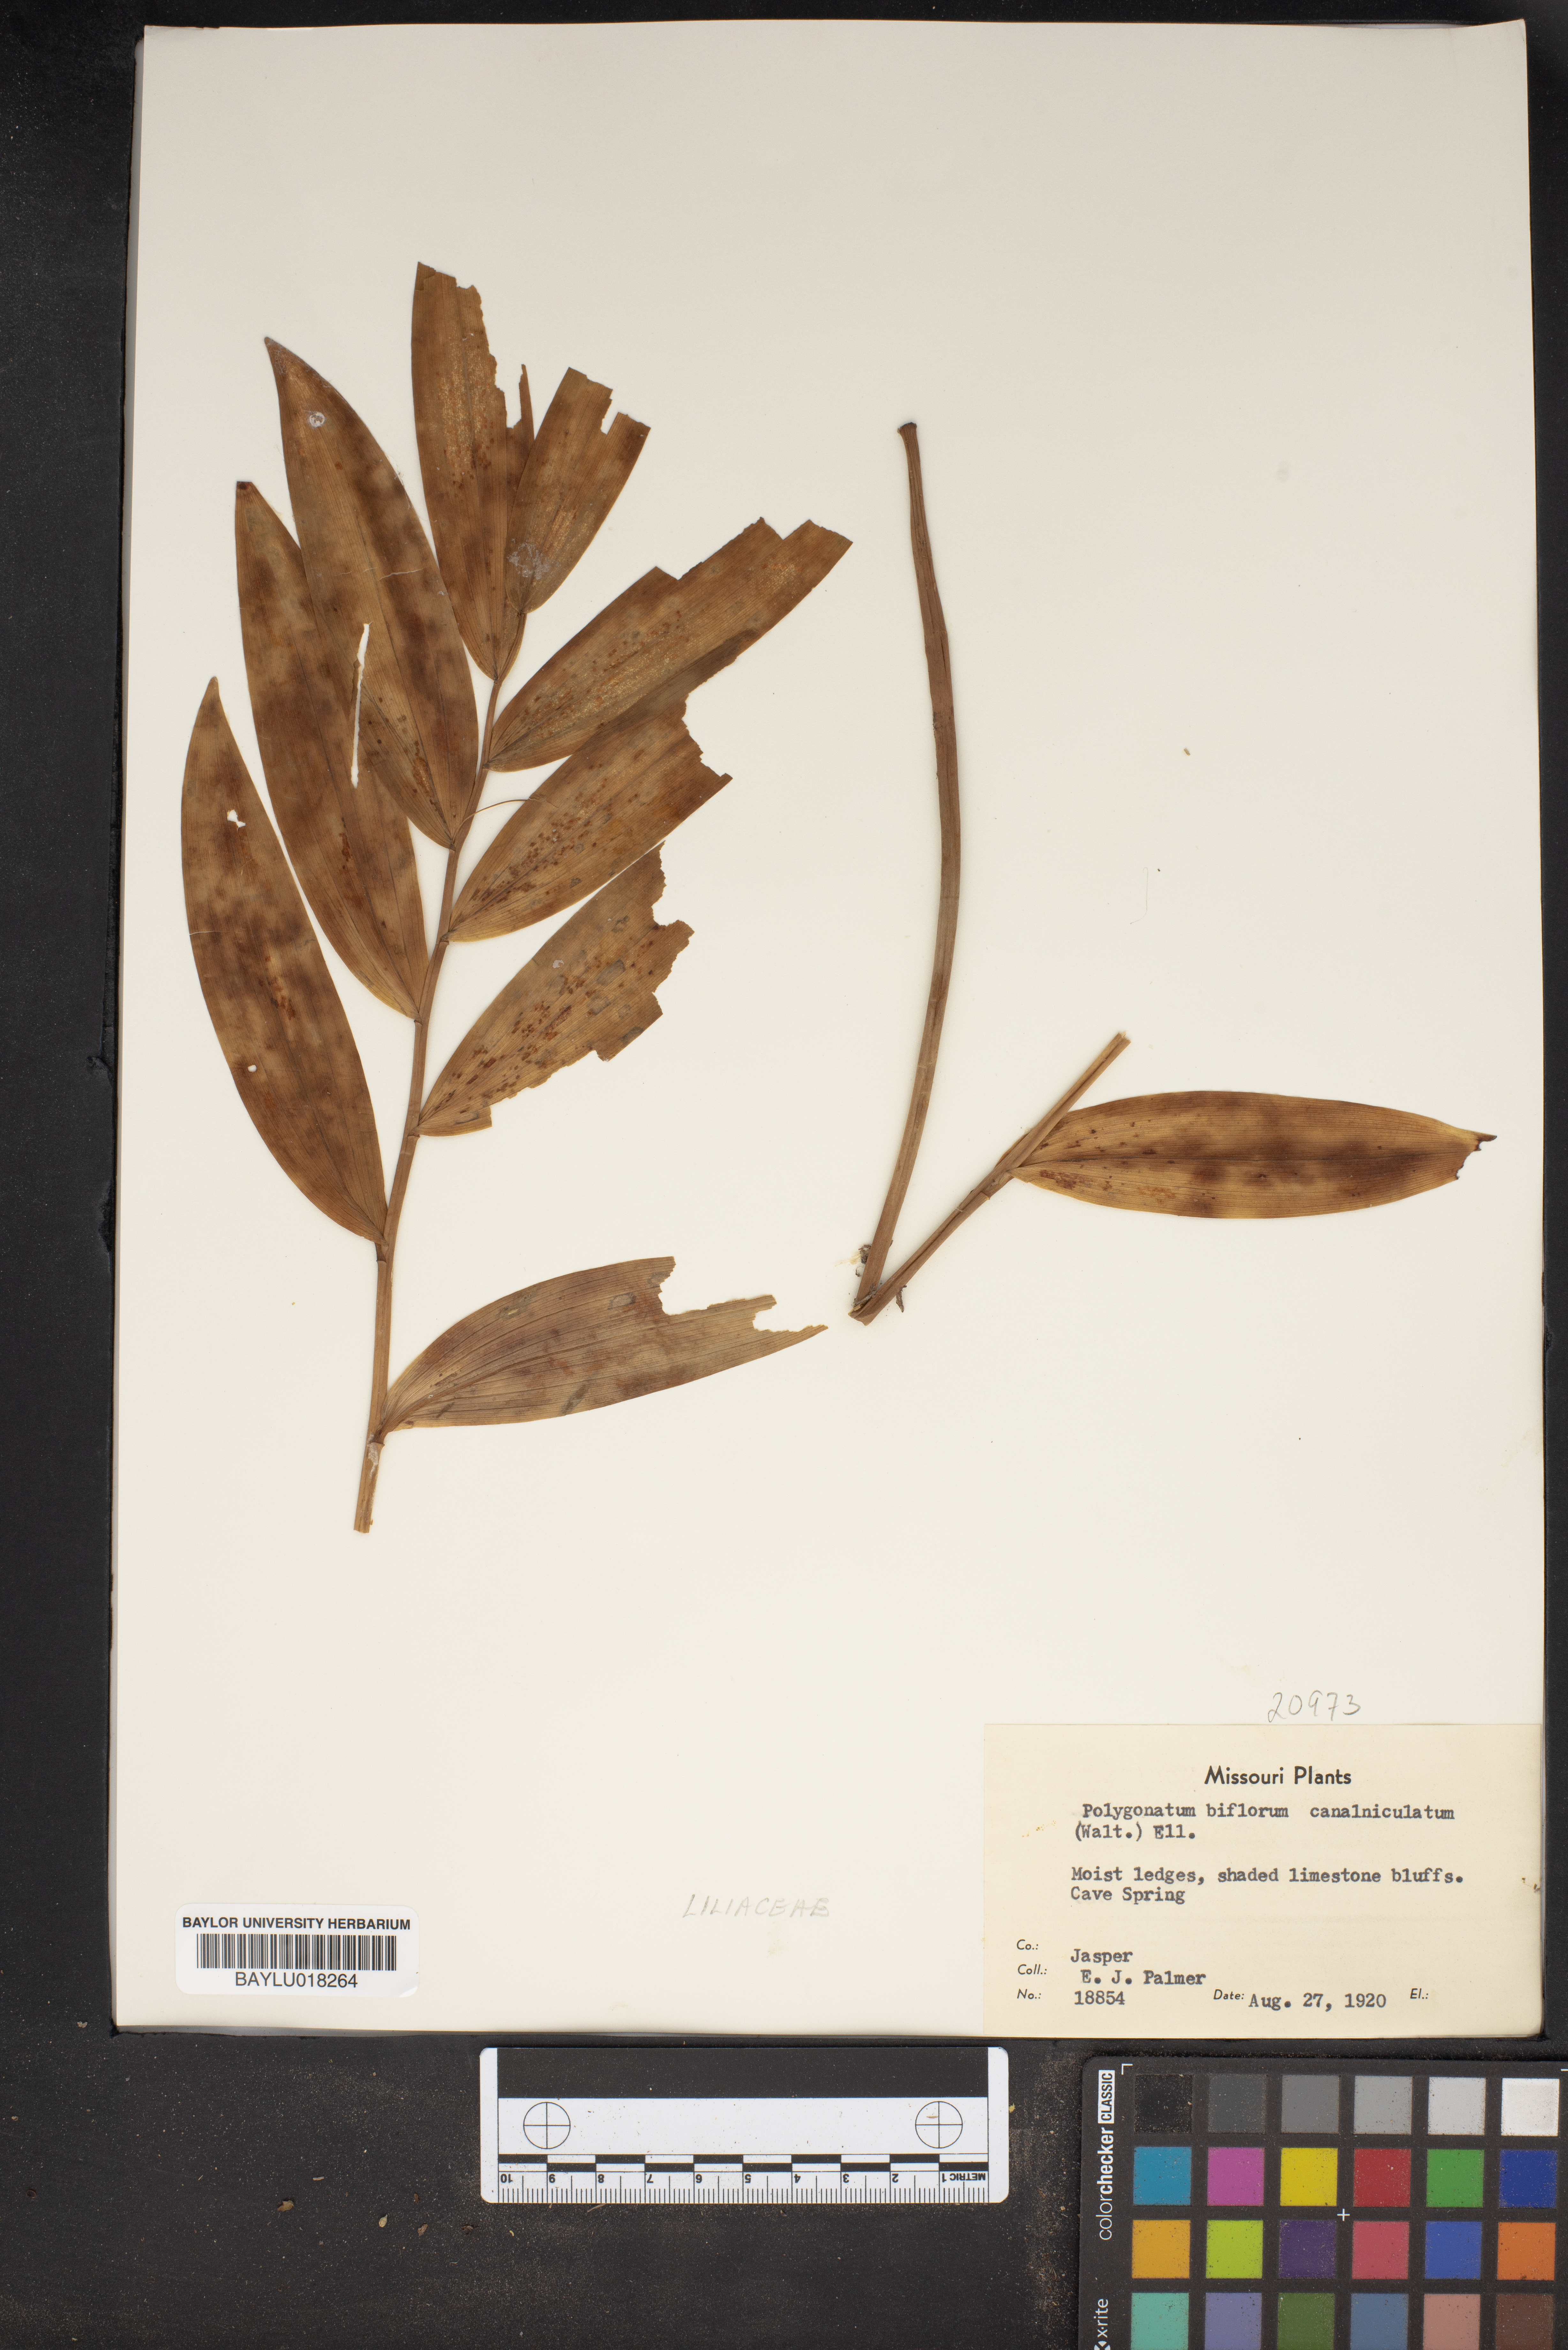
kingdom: Plantae
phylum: Tracheophyta
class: Liliopsida
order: Asparagales
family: Asparagaceae
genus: Polygonatum
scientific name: Polygonatum biflorum
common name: American solomon's-seal
